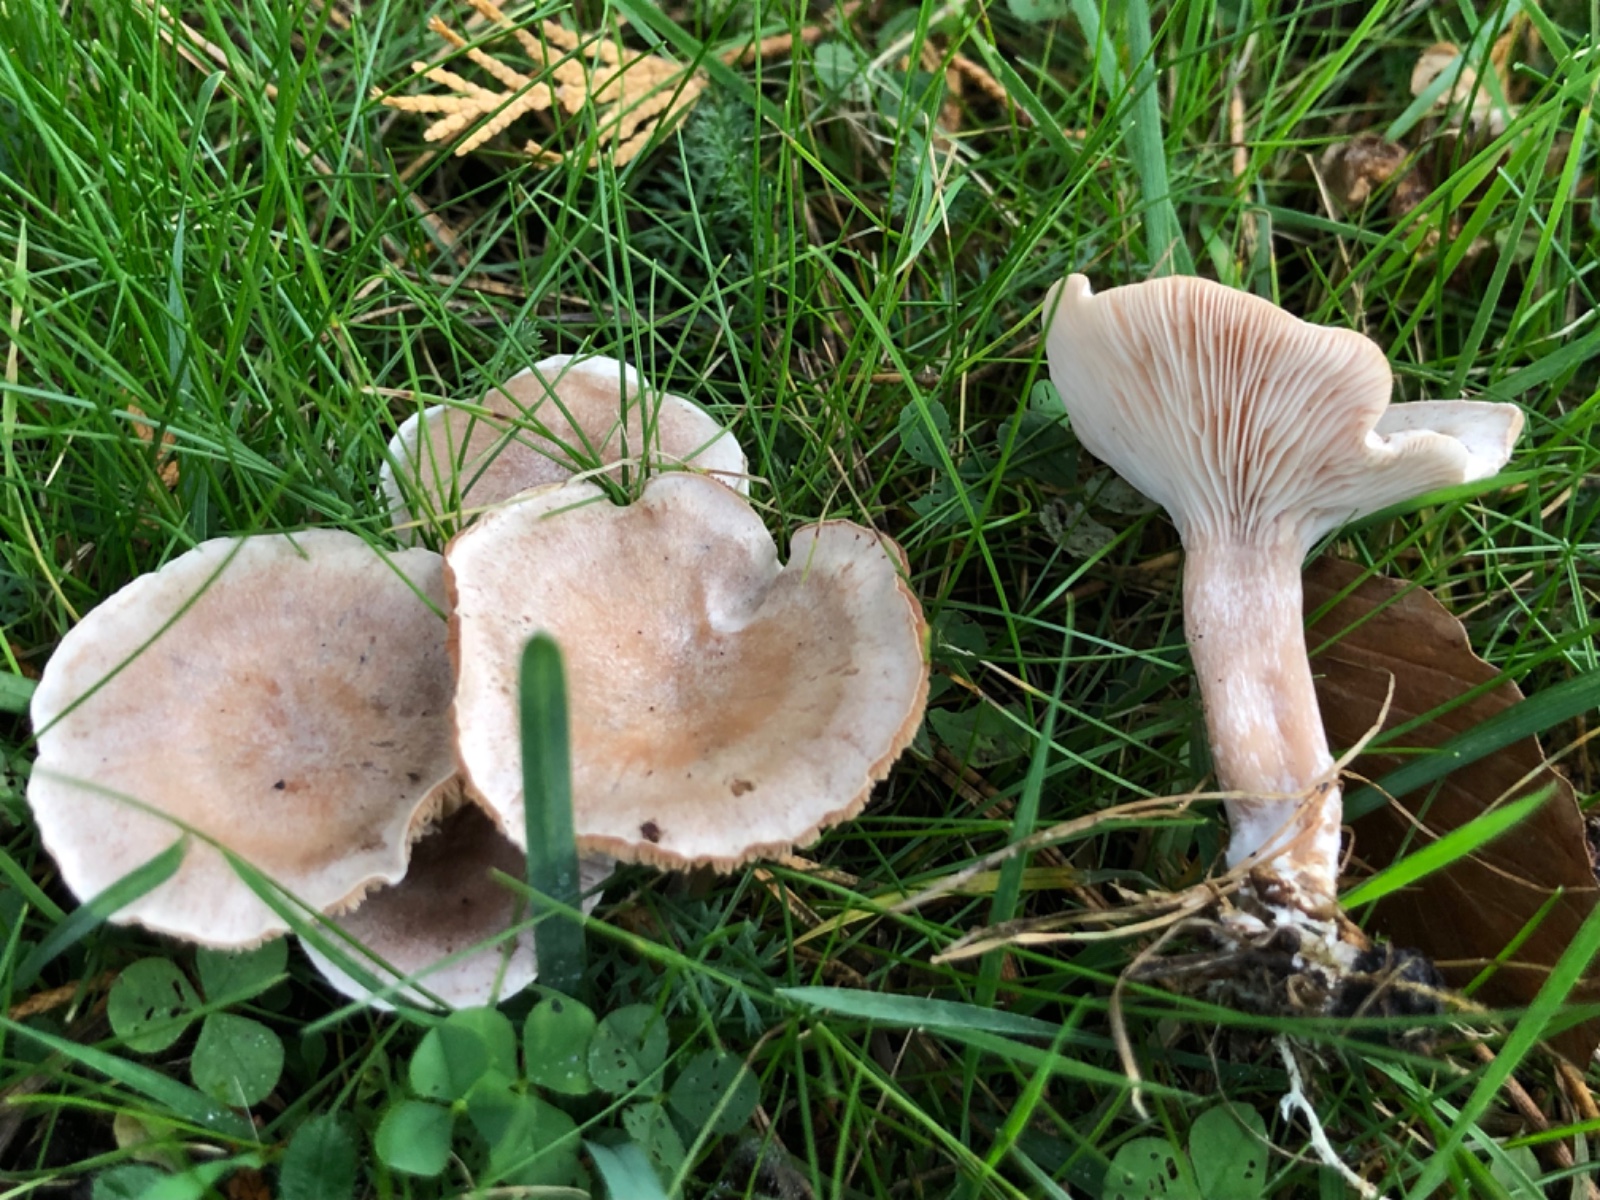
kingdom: Fungi
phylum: Basidiomycota
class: Agaricomycetes
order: Agaricales
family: Tricholomataceae
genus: Clitocybe
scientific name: Clitocybe rivulosa
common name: eng-tragthat
